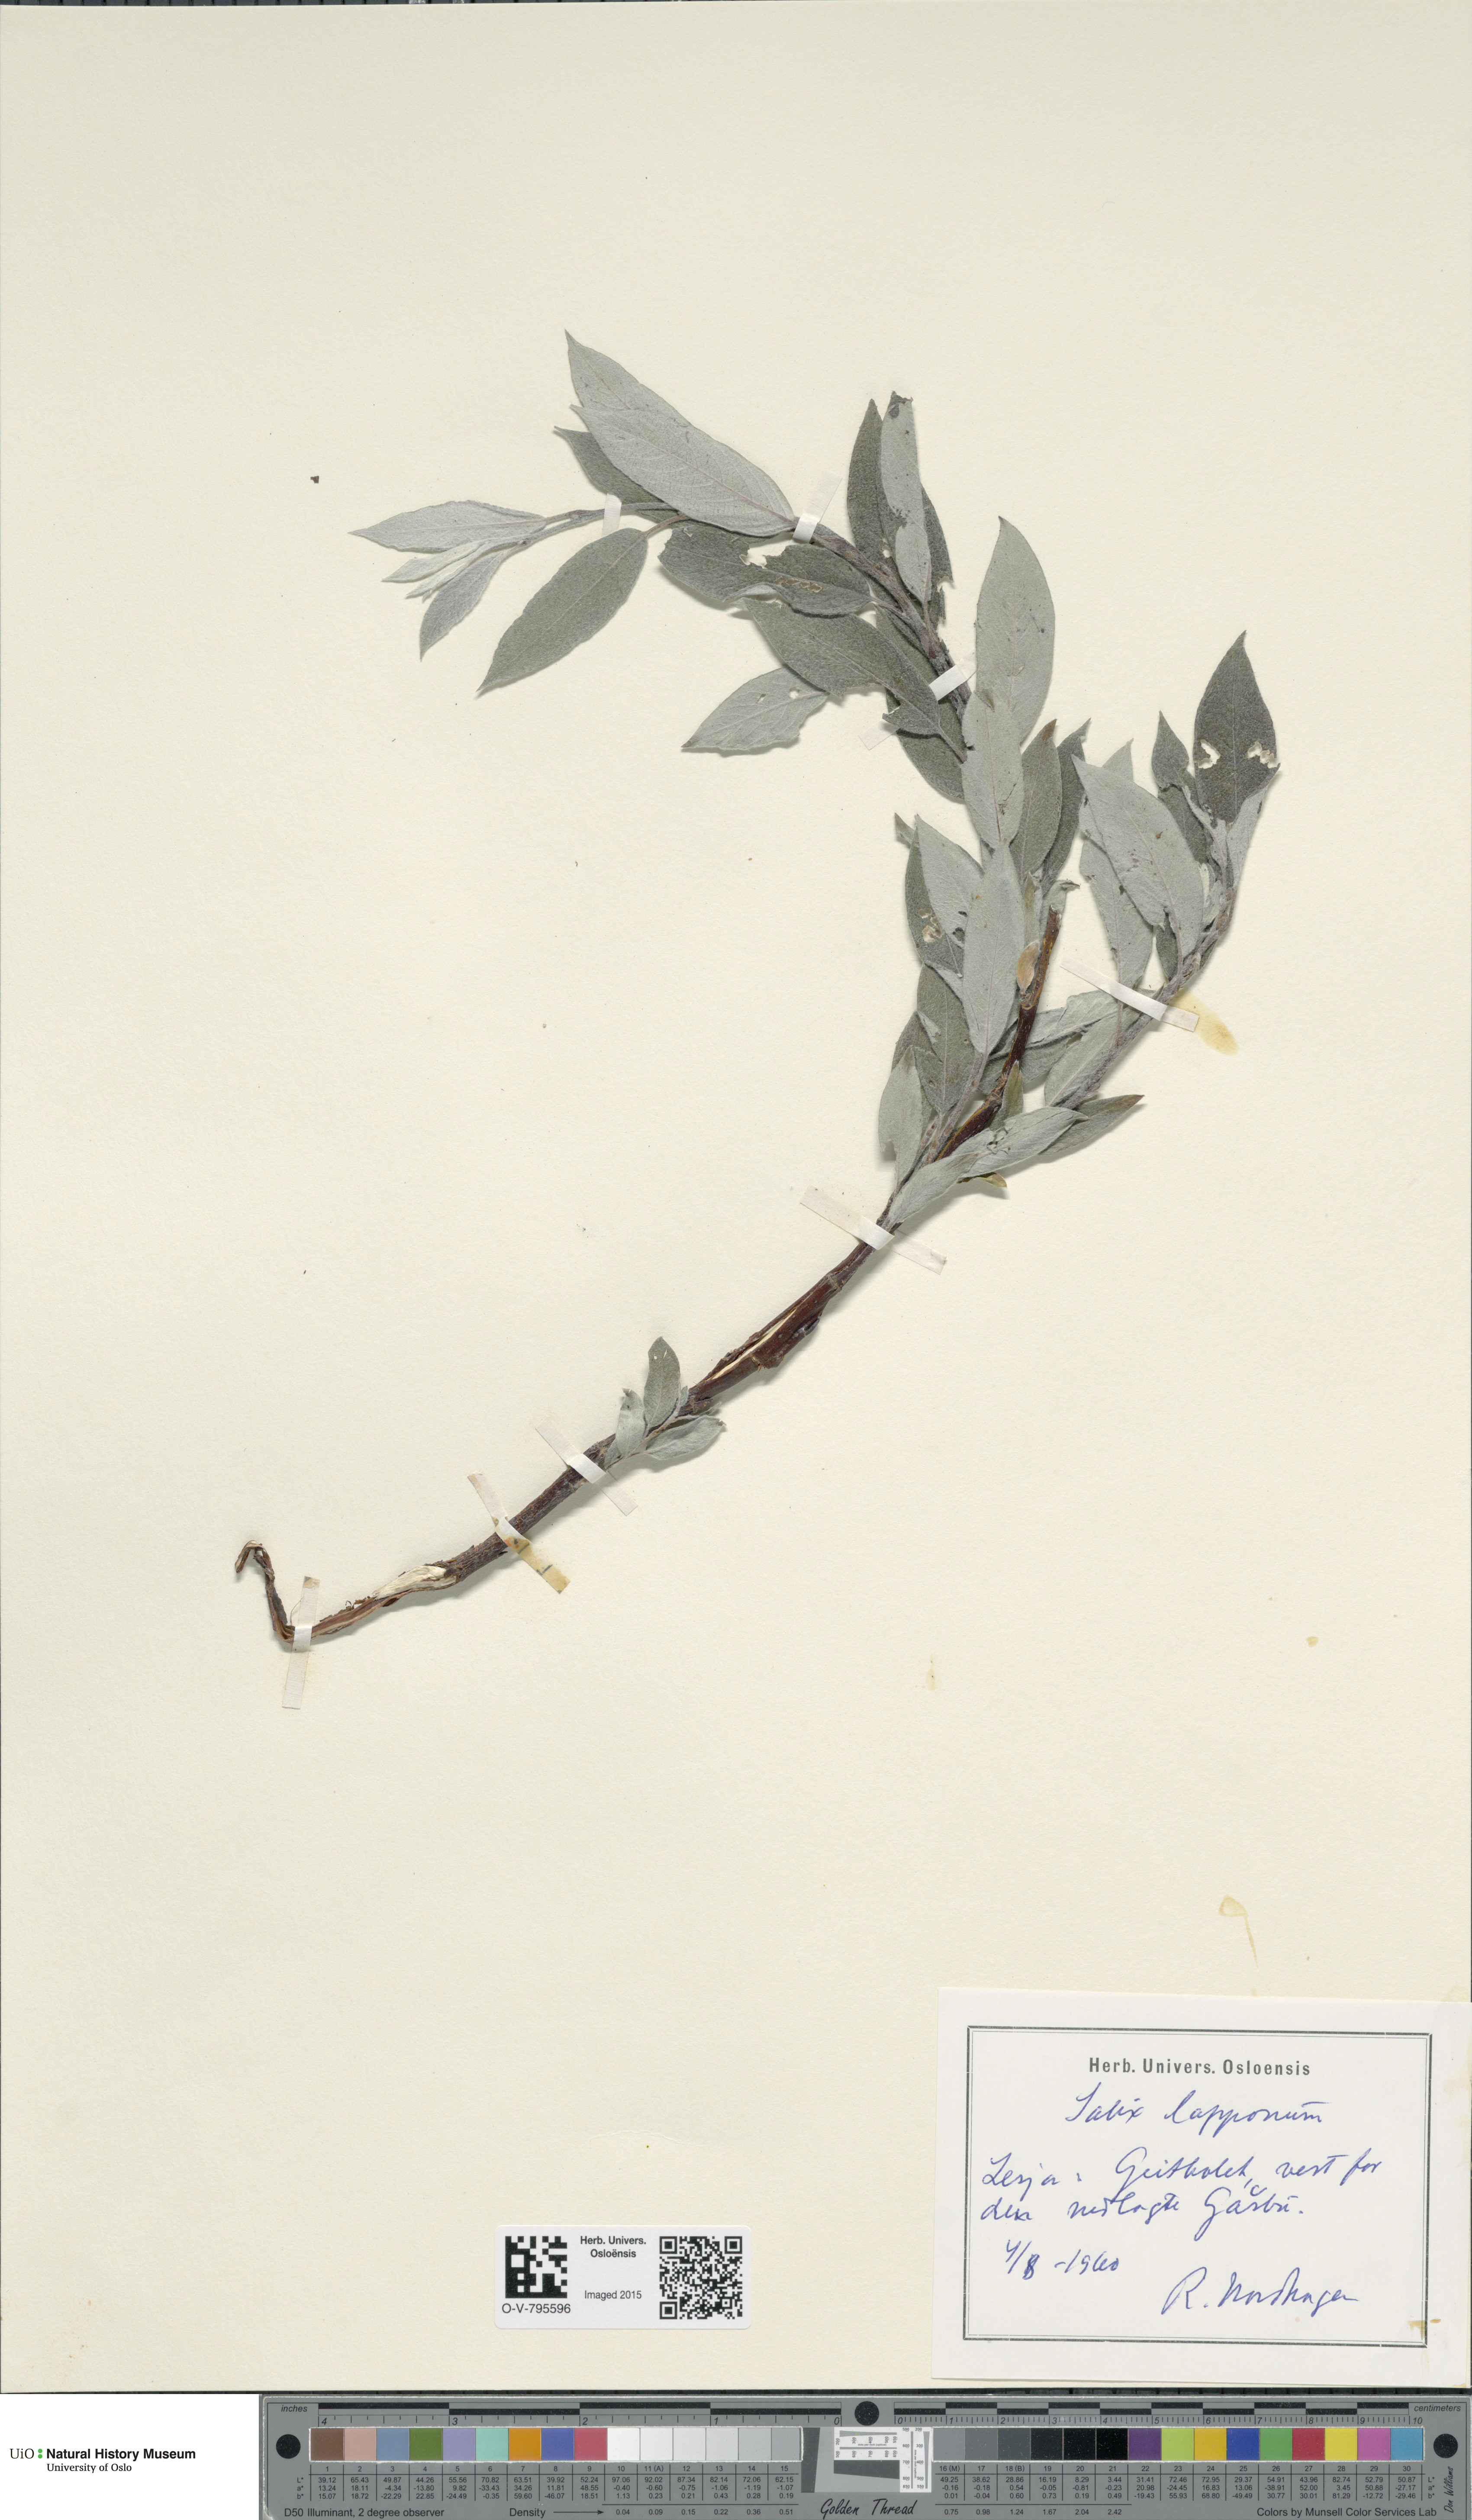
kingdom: Plantae
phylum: Tracheophyta
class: Magnoliopsida
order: Malpighiales
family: Salicaceae
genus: Salix
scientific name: Salix lapponum
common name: Downy willow
